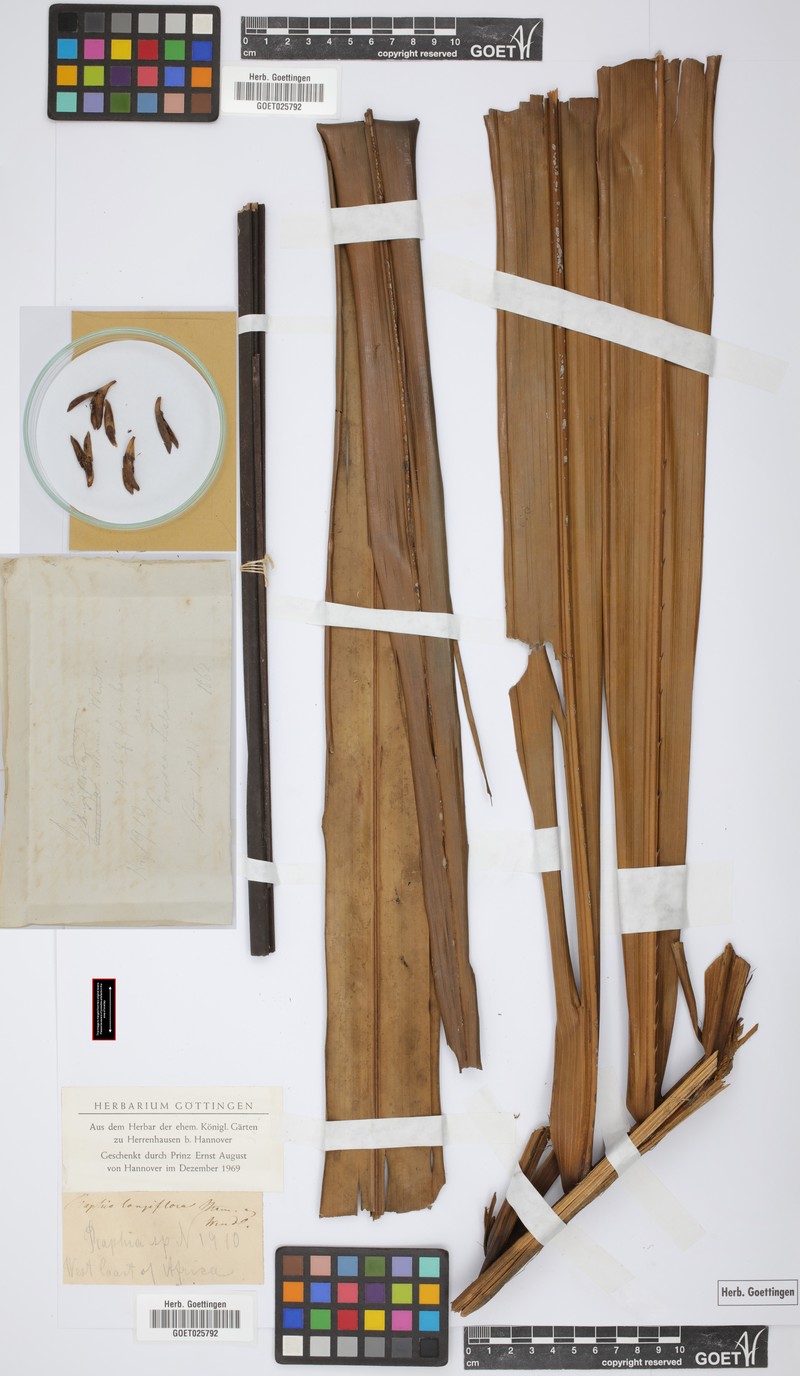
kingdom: Plantae
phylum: Tracheophyta
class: Liliopsida
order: Arecales
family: Arecaceae
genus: Raphia
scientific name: Raphia longiflora
